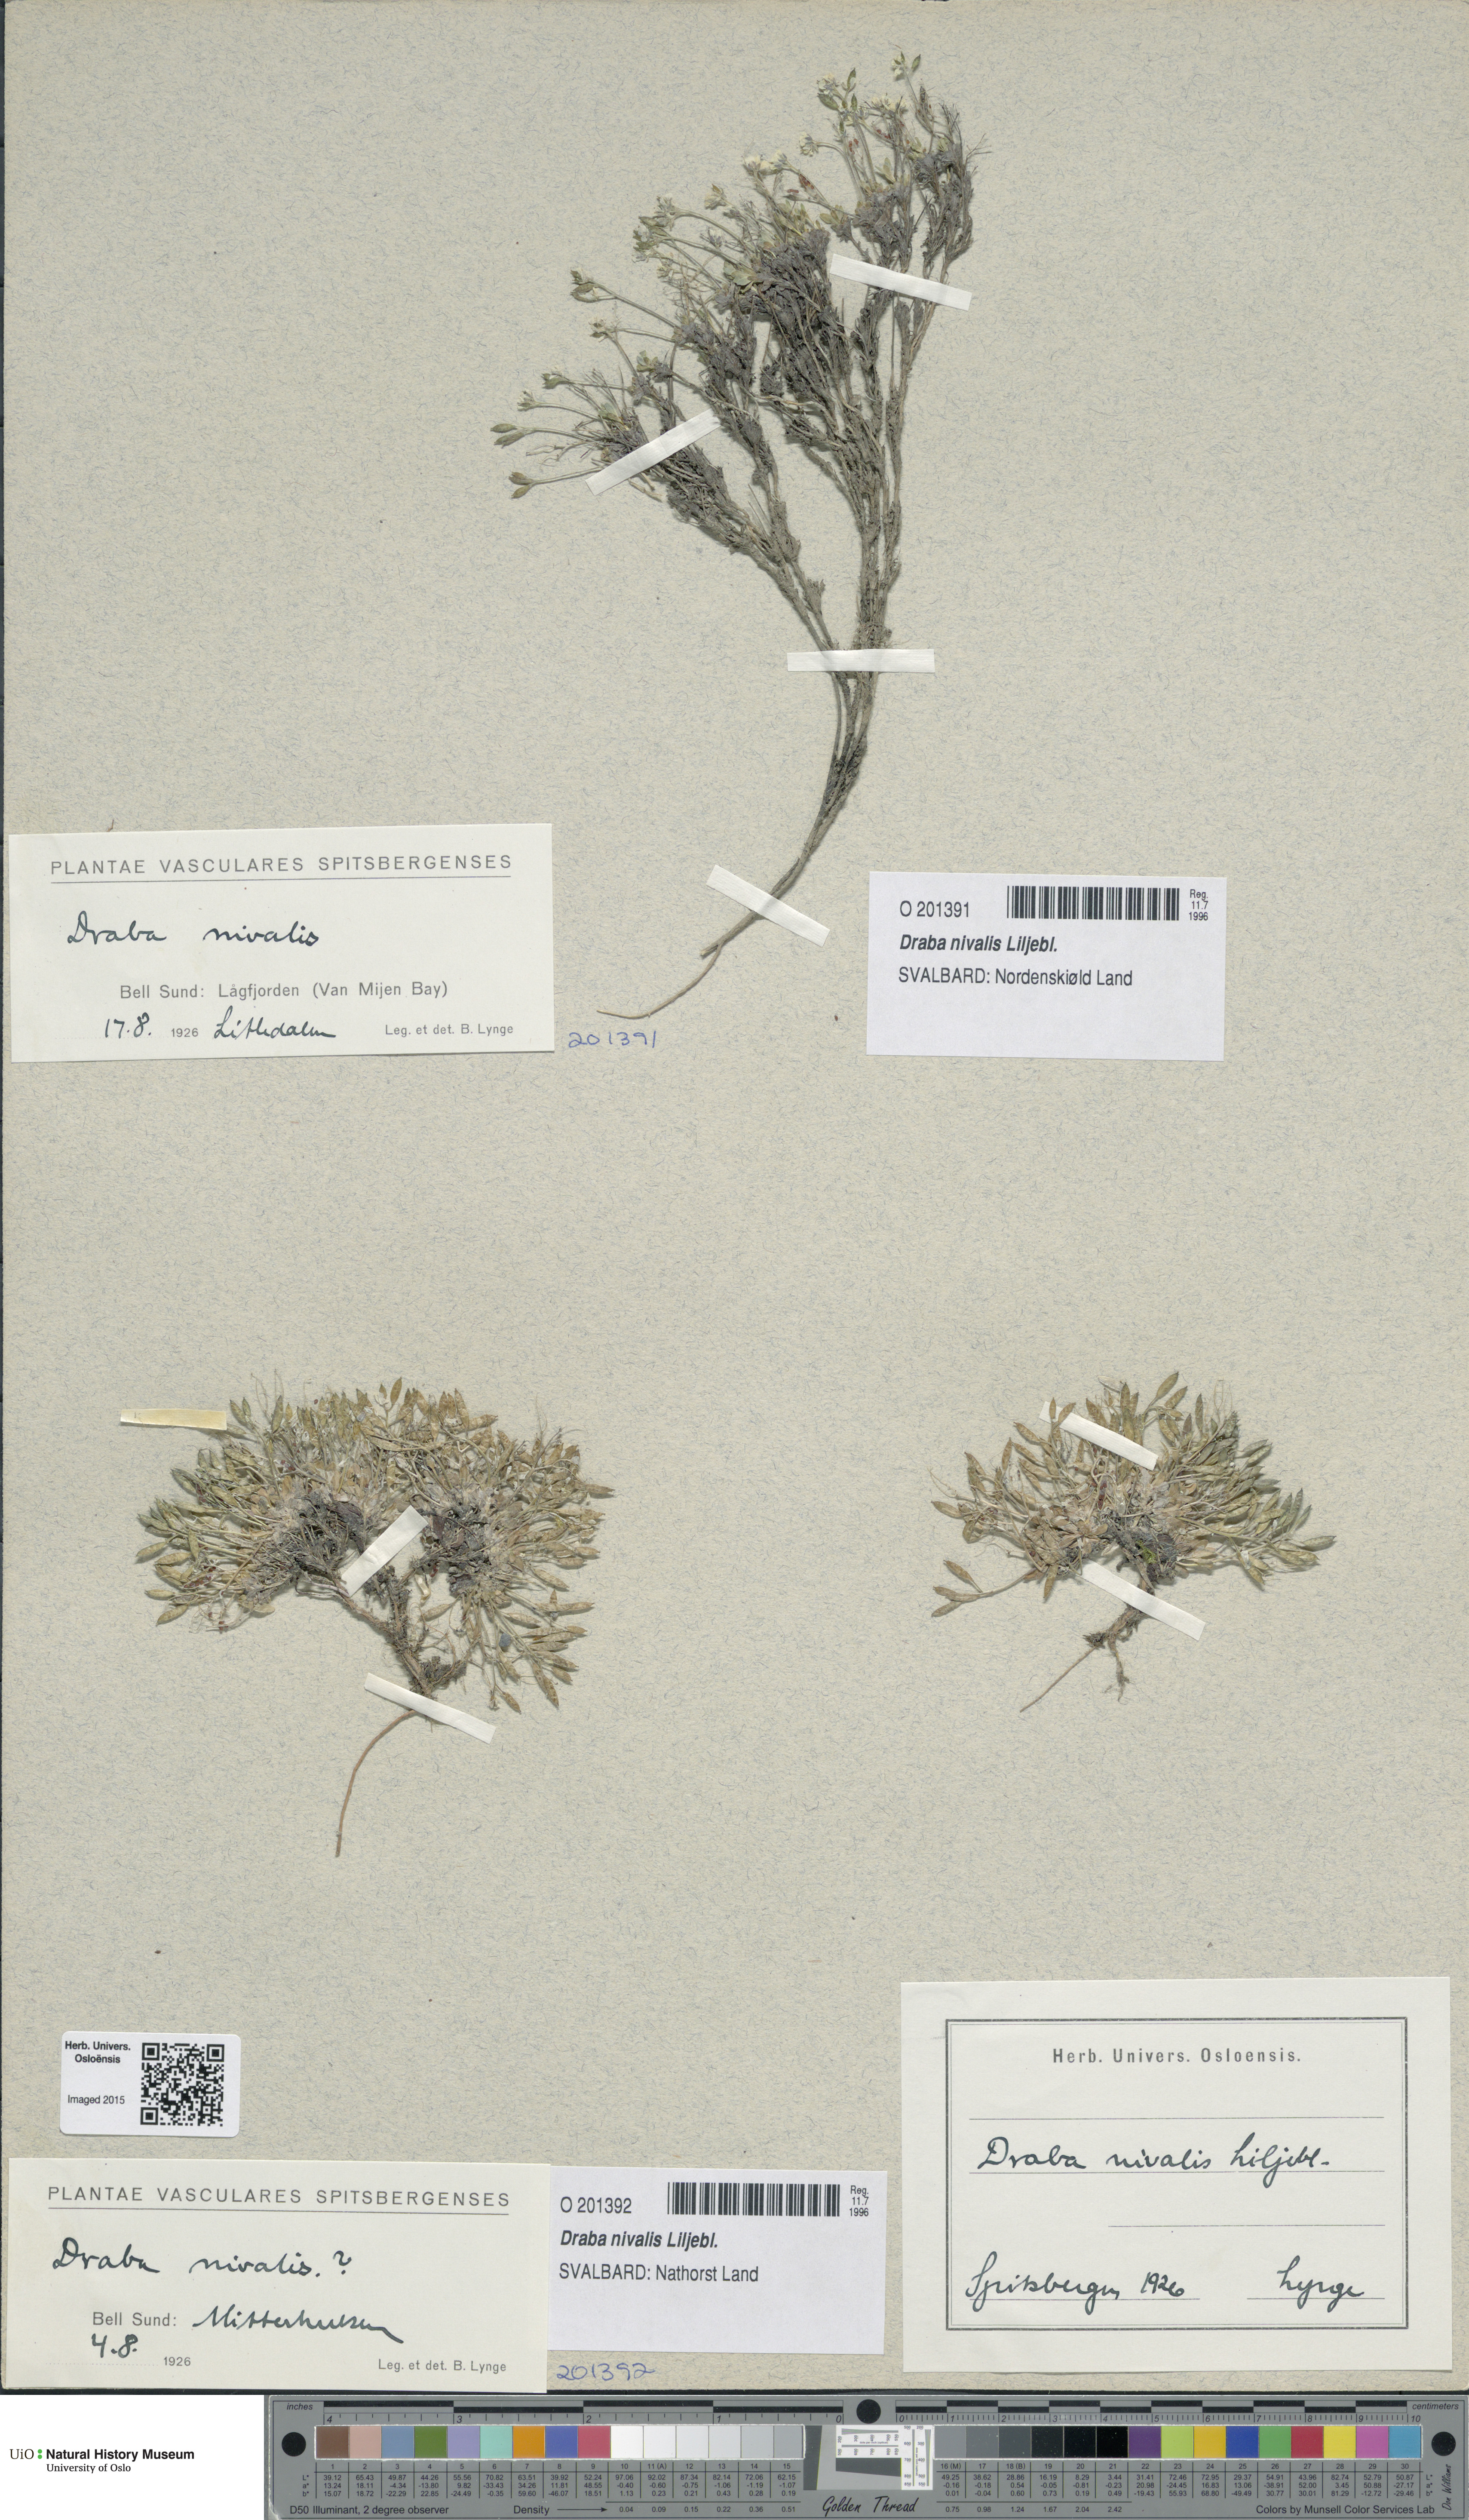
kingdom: Plantae
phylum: Tracheophyta
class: Magnoliopsida
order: Brassicales
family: Brassicaceae
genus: Draba
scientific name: Draba nivalis
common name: Snow draba
